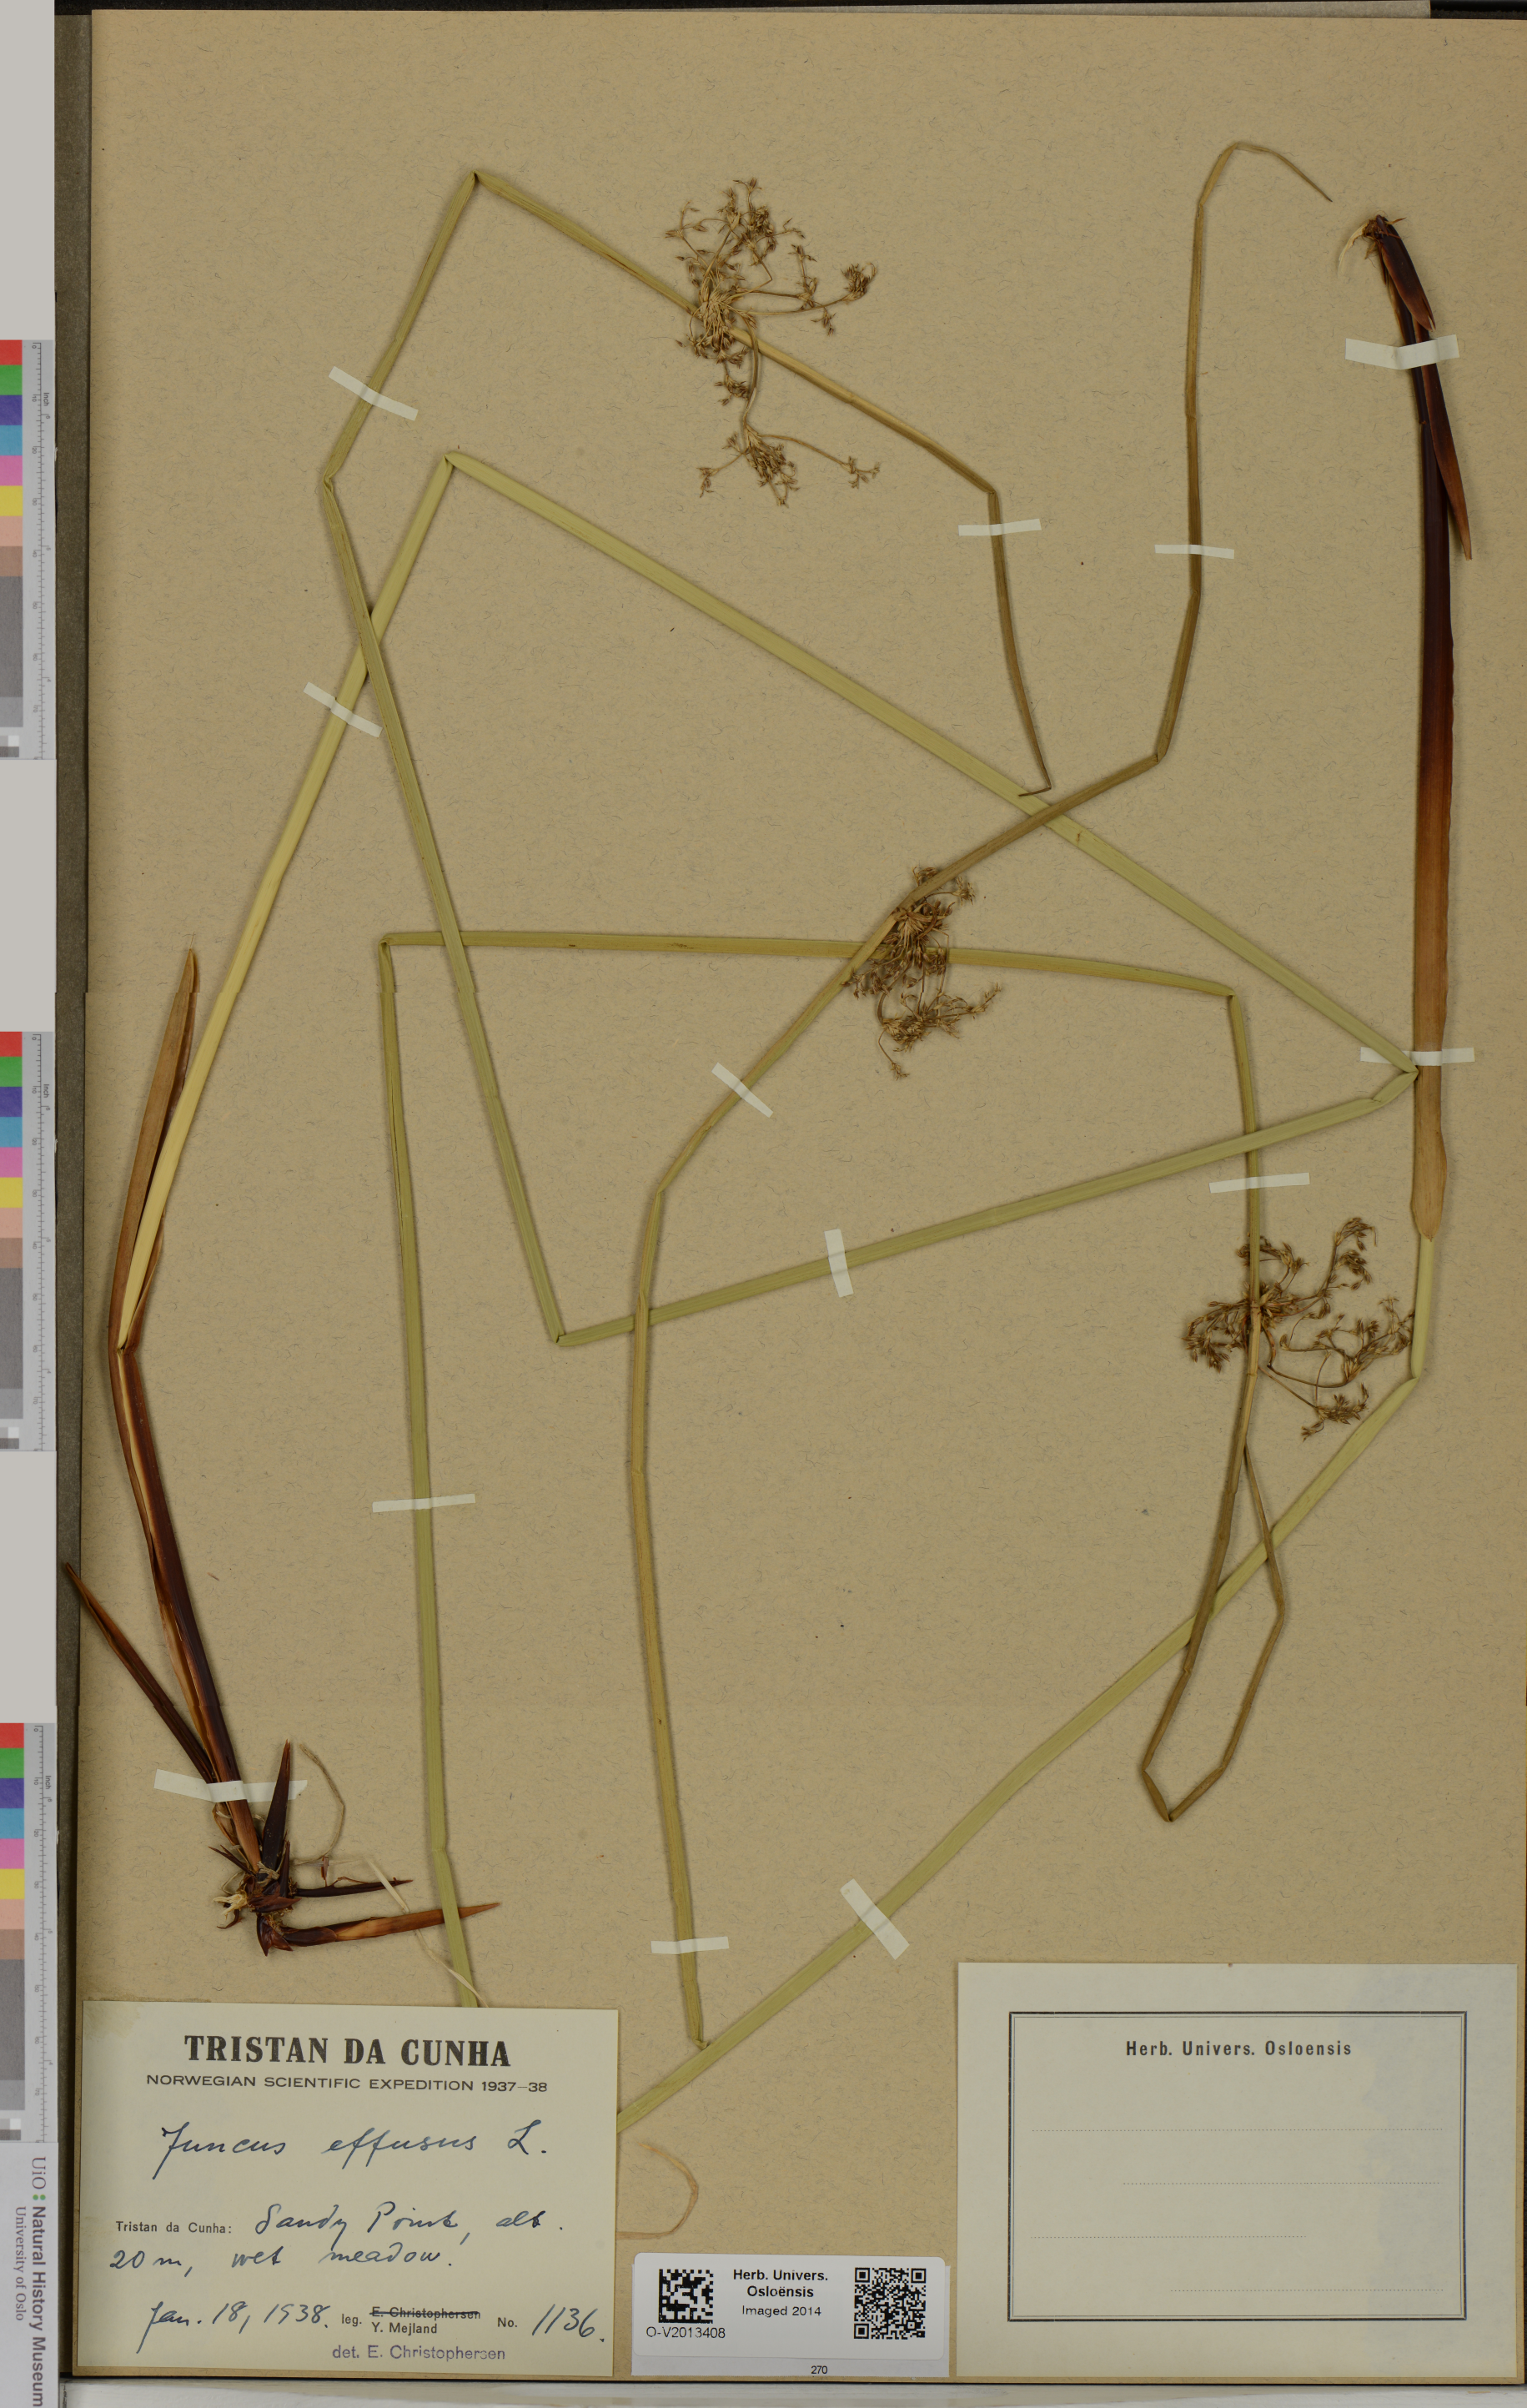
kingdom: Plantae
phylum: Tracheophyta
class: Liliopsida
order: Poales
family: Juncaceae
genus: Juncus
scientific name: Juncus effusus
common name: Soft rush
